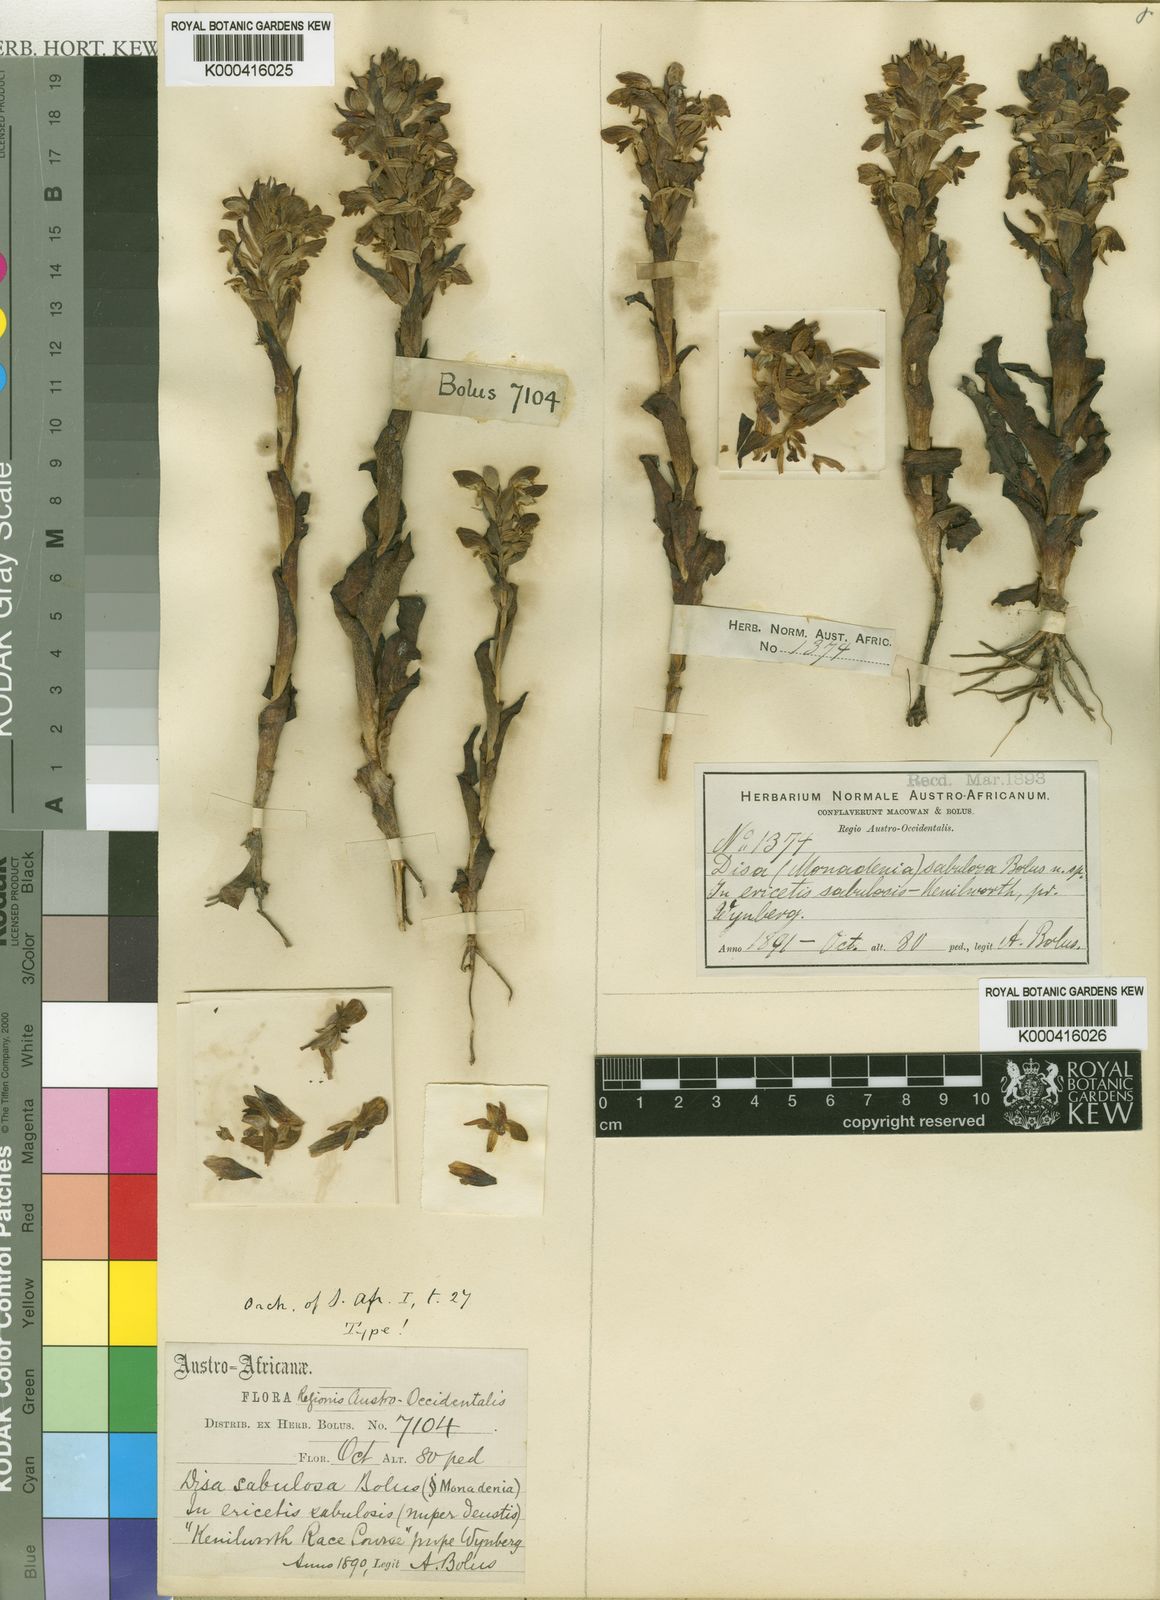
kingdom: Plantae
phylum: Tracheophyta
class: Liliopsida
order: Asparagales
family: Orchidaceae
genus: Disa
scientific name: Disa sabulosa
